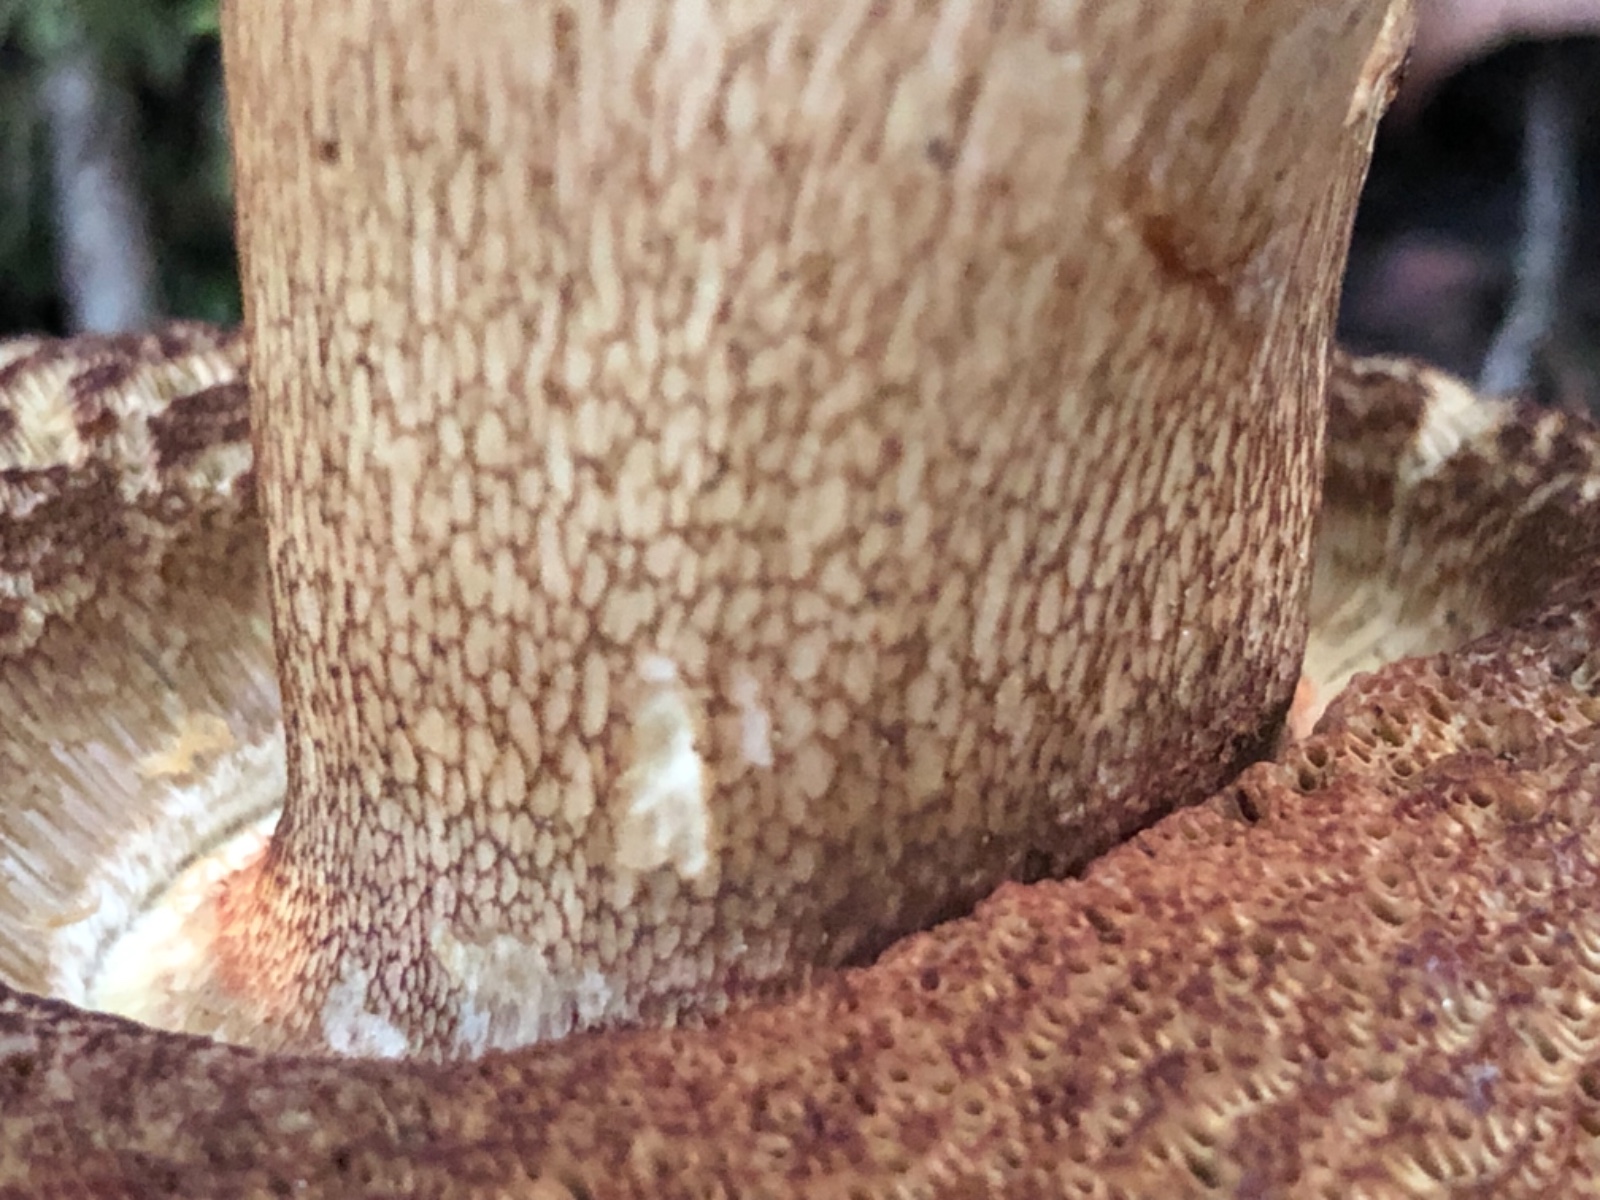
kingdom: Fungi
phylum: Basidiomycota
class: Agaricomycetes
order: Boletales
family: Boletaceae
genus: Boletus
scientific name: Boletus reticulatus
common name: sommer-rørhat
